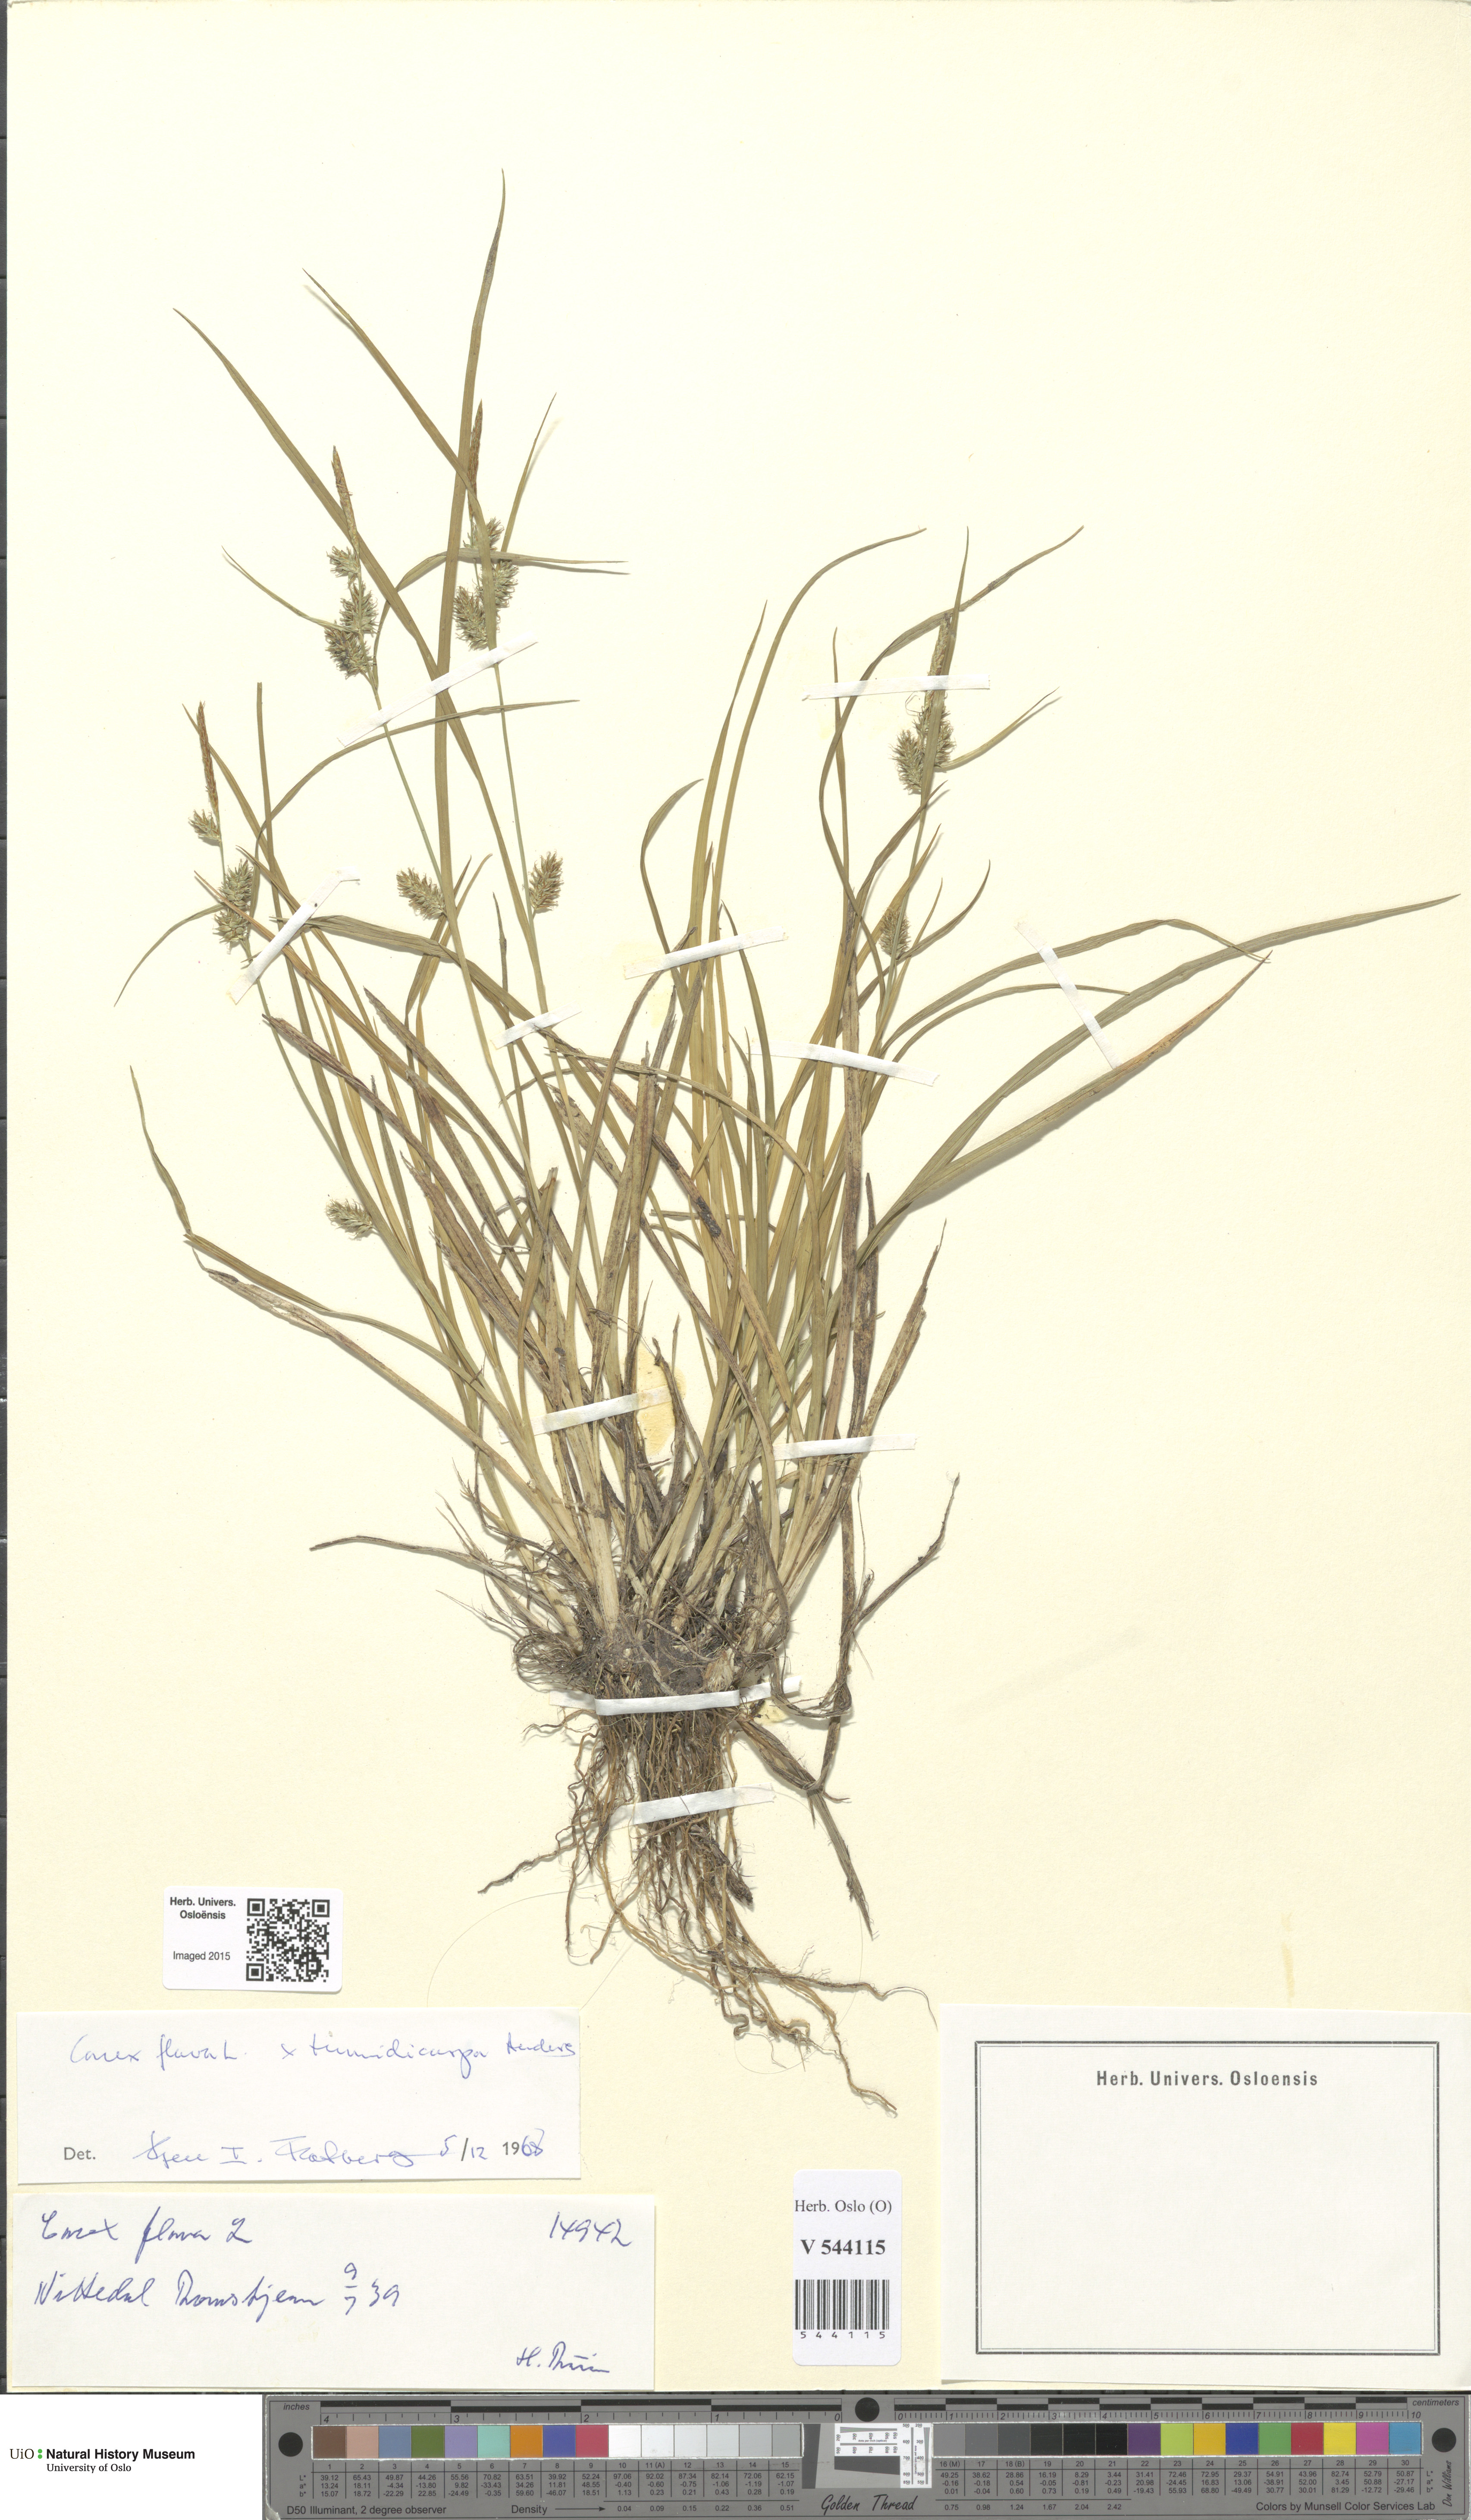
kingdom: Plantae
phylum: Tracheophyta
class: Liliopsida
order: Poales
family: Cyperaceae
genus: Carex
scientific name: Carex
